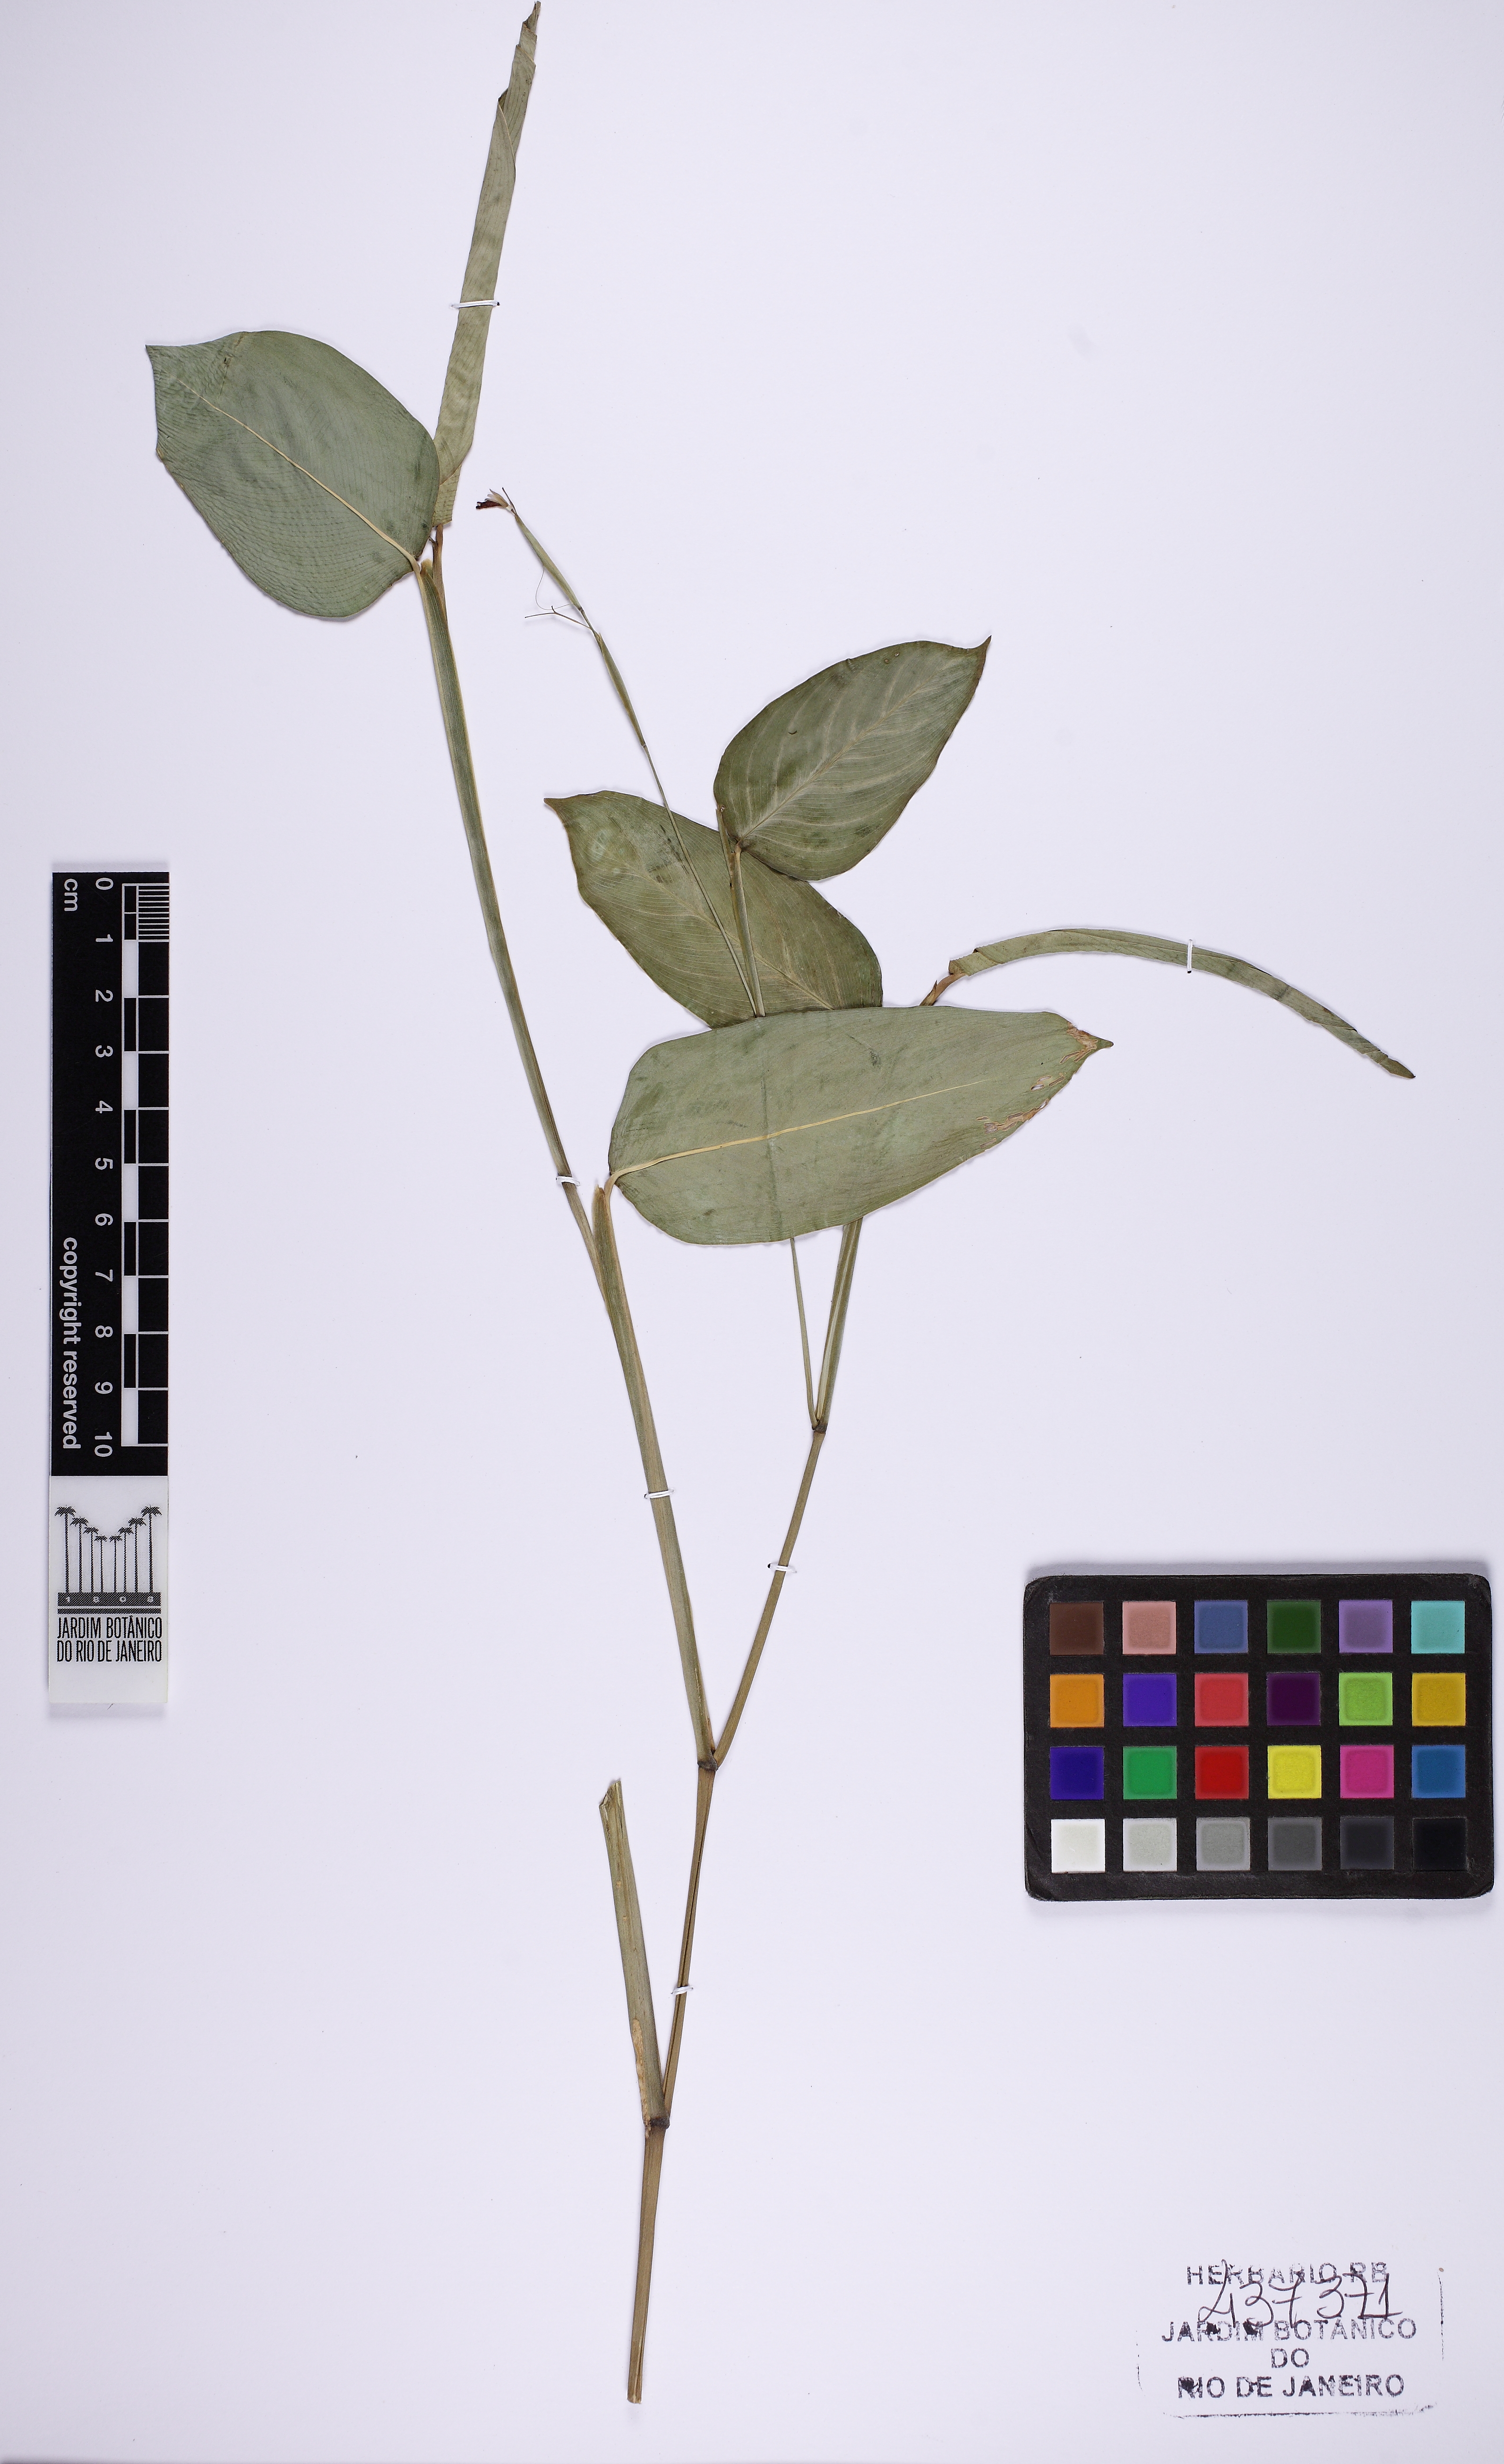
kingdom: Plantae
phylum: Tracheophyta
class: Liliopsida
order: Zingiberales
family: Marantaceae
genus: Maranta
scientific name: Maranta pohliana
